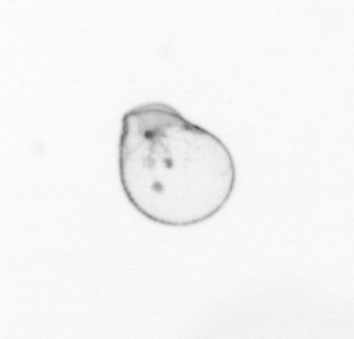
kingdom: Chromista
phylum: Myzozoa
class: Dinophyceae
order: Noctilucales
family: Noctilucaceae
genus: Noctiluca
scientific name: Noctiluca scintillans
